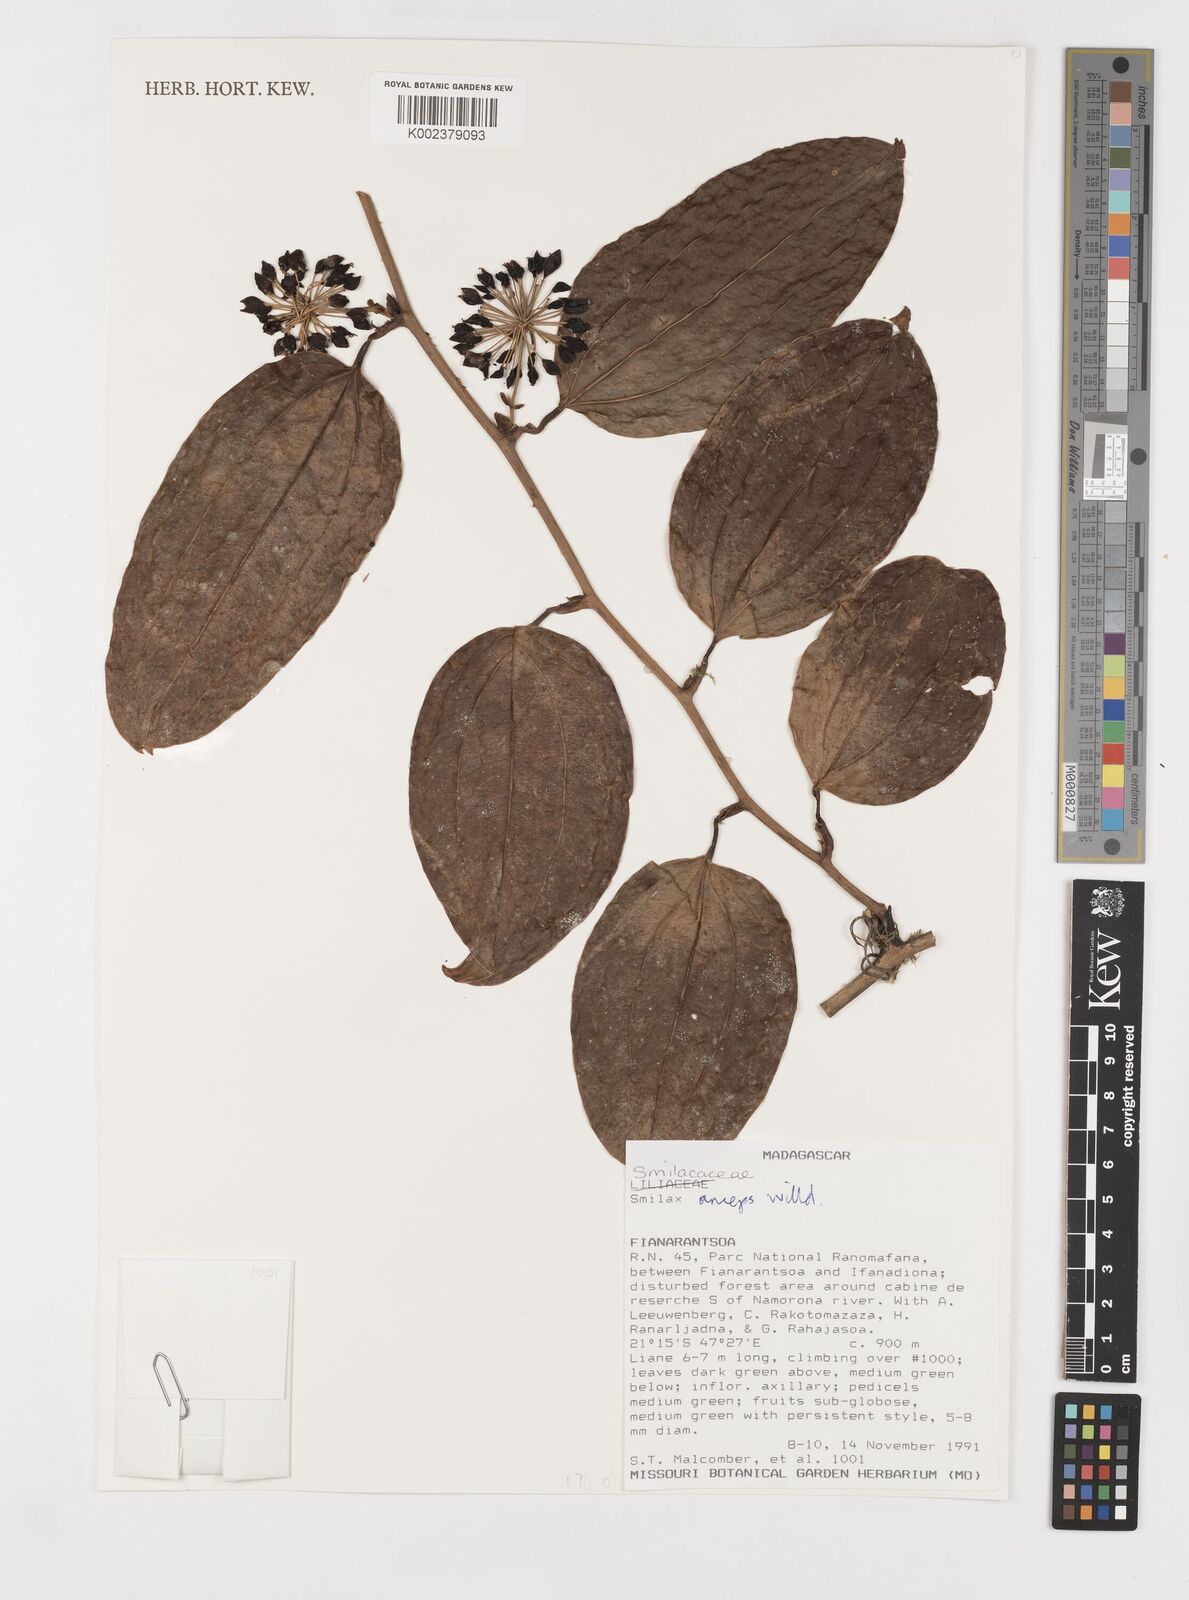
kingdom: Plantae
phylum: Tracheophyta
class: Liliopsida
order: Liliales
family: Smilacaceae
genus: Smilax
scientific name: Smilax anceps
